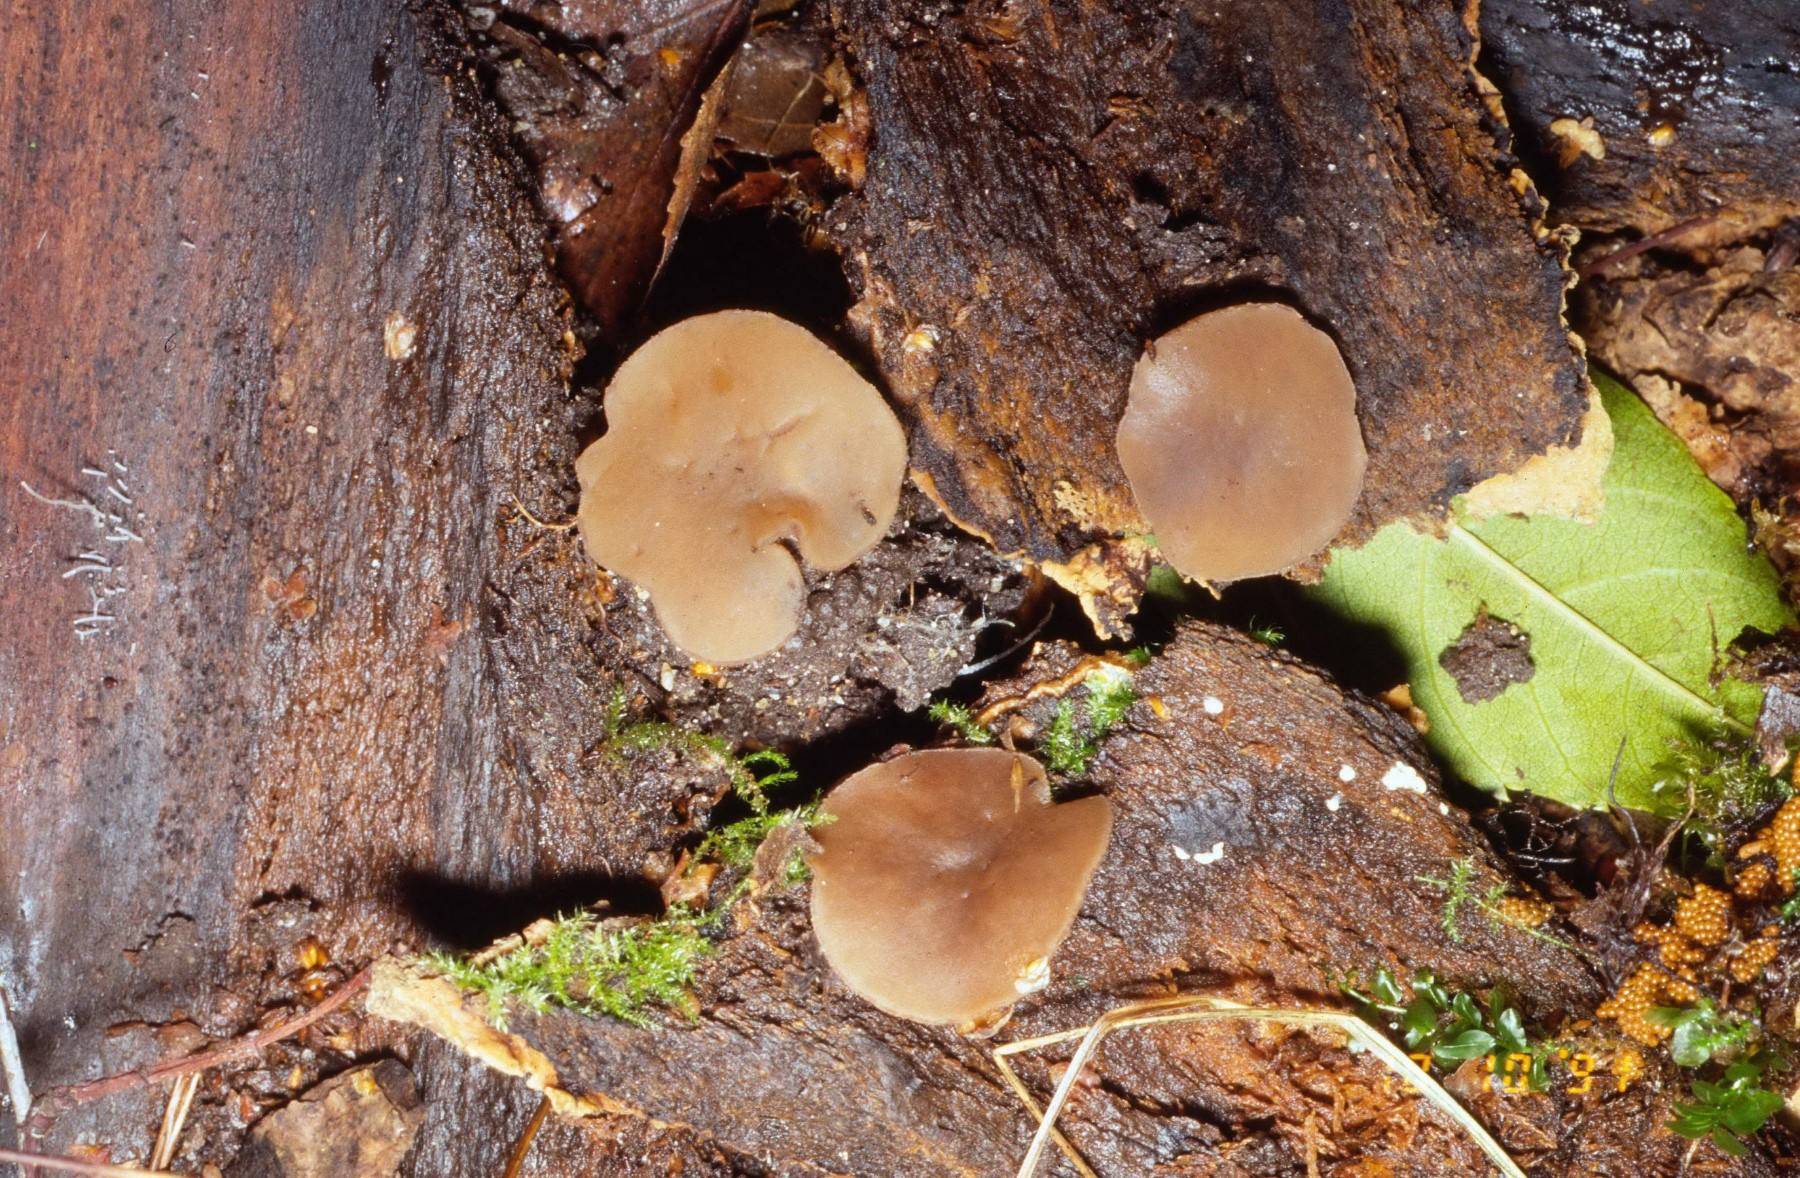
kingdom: Fungi
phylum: Ascomycota
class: Pezizomycetes
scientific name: Pezizomycetes
